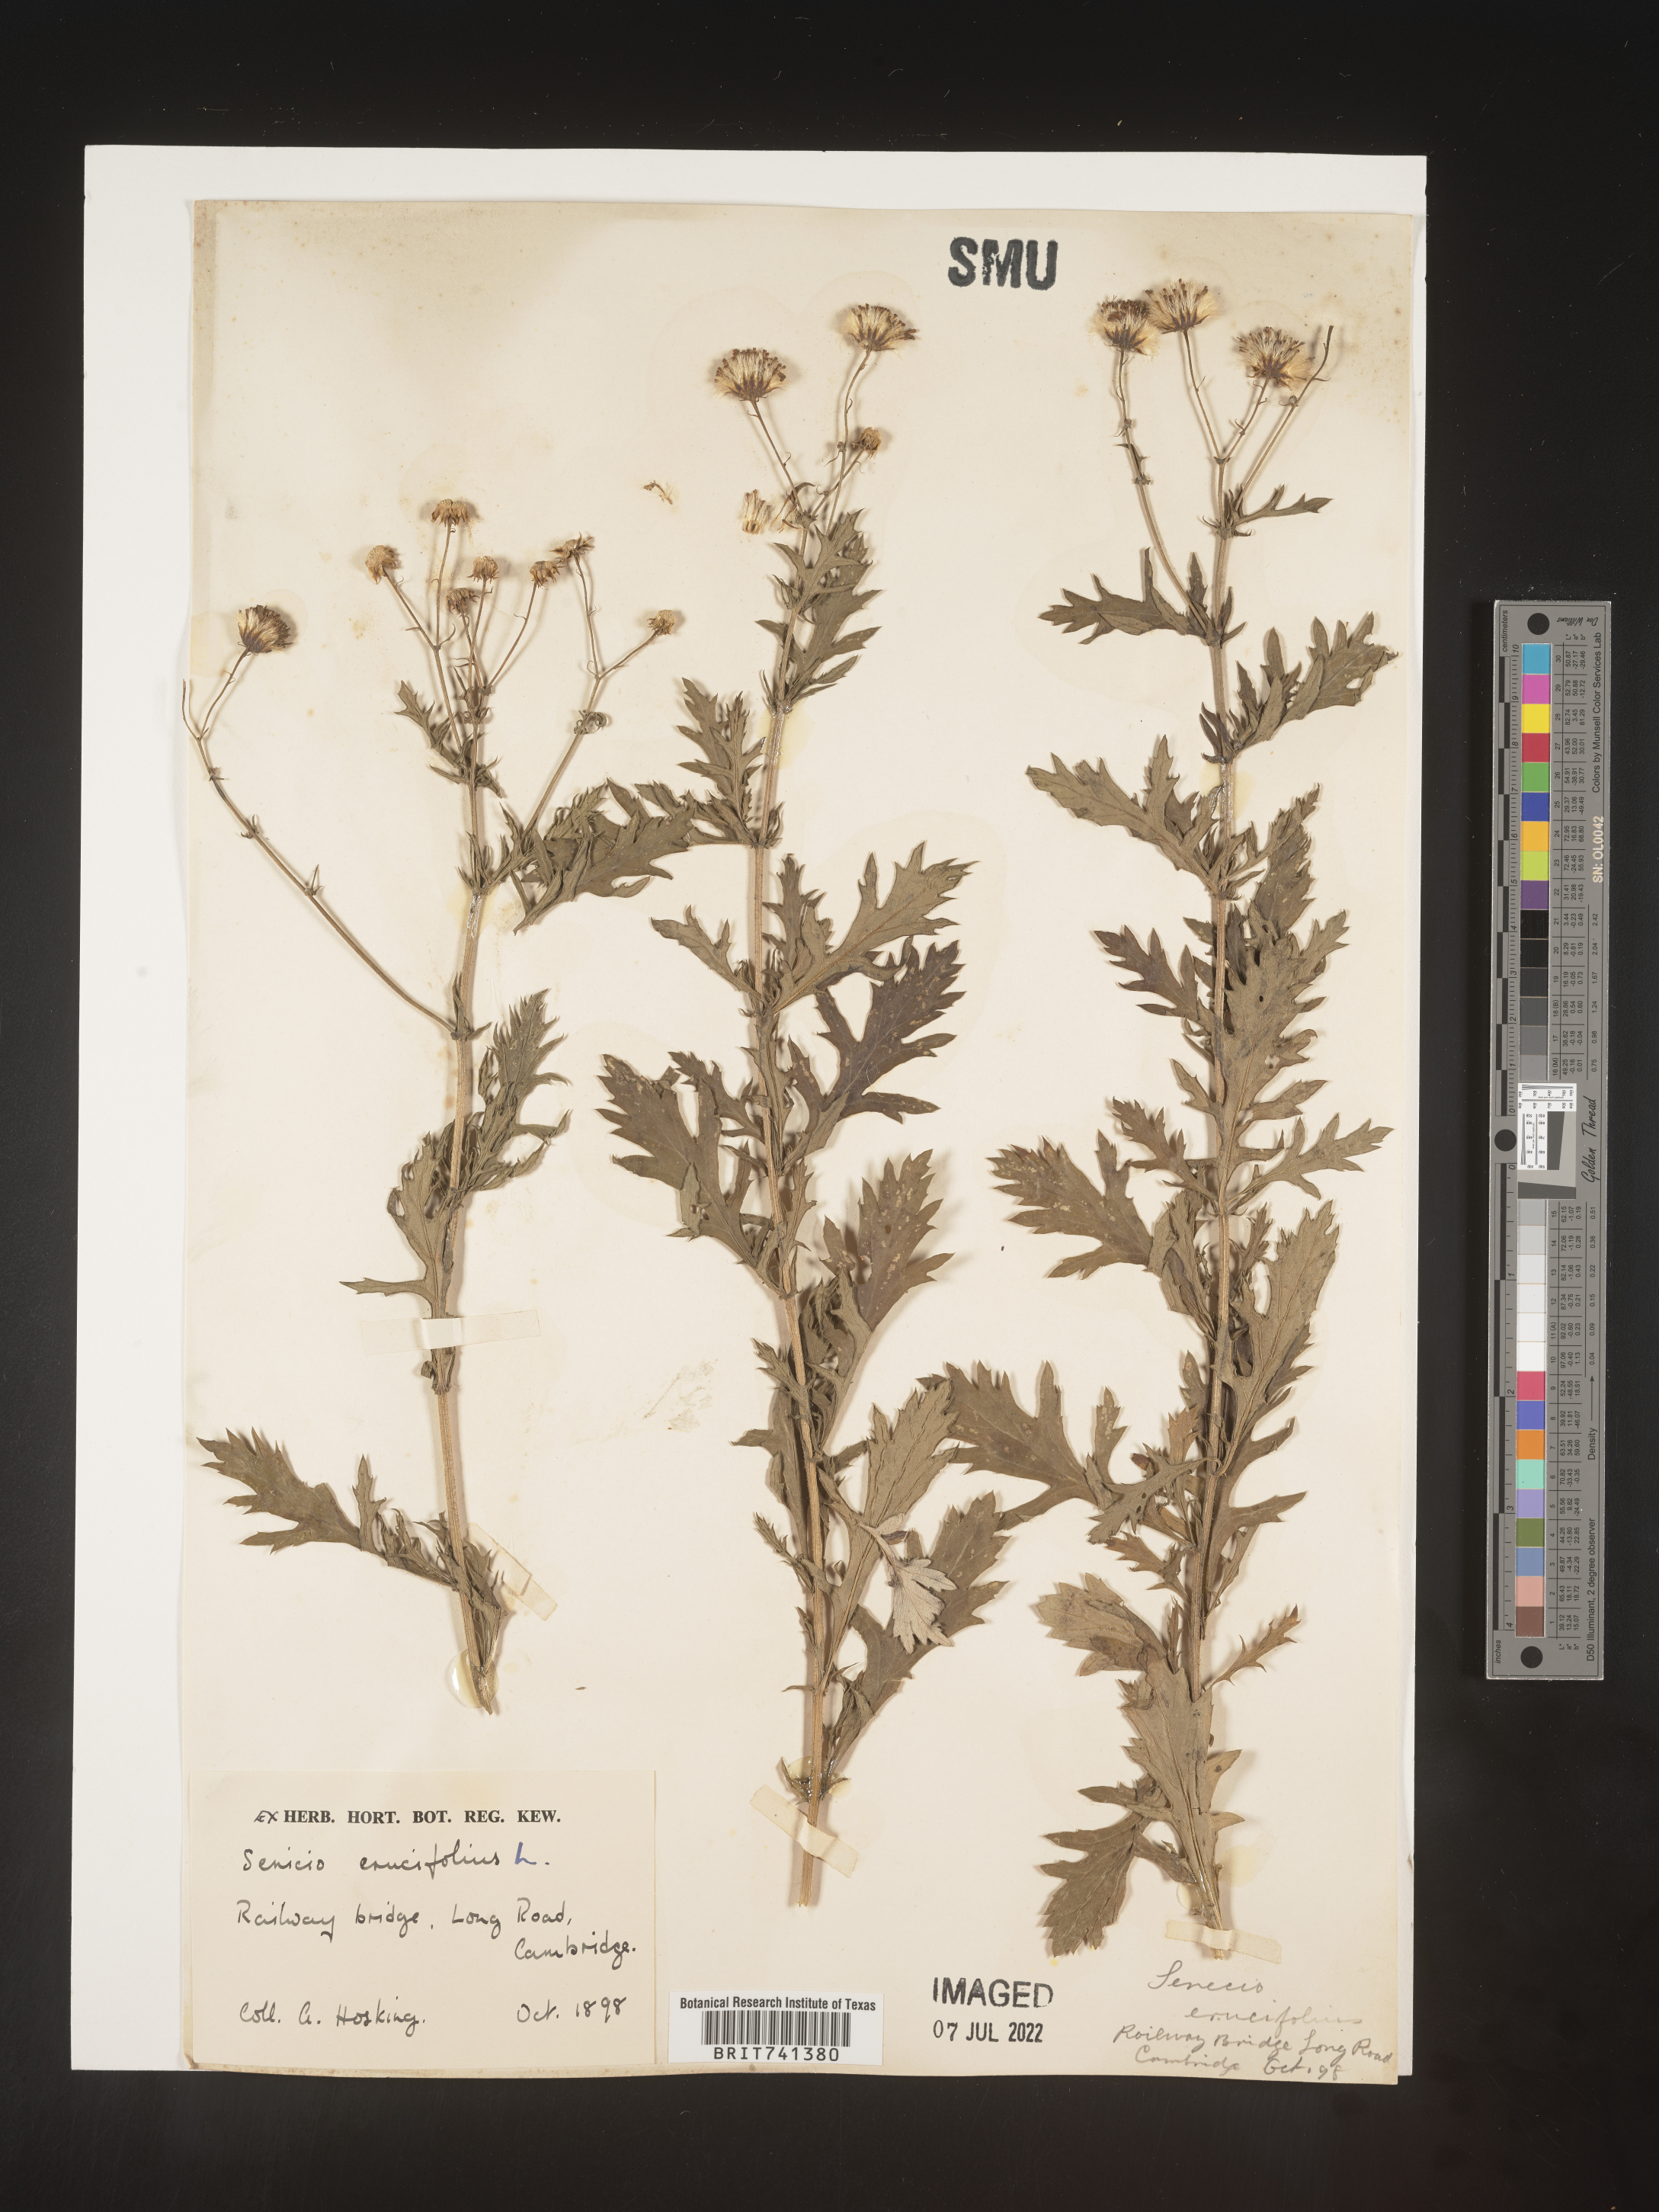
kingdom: Plantae
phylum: Tracheophyta
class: Magnoliopsida
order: Asterales
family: Asteraceae
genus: Senecio
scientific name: Senecio
